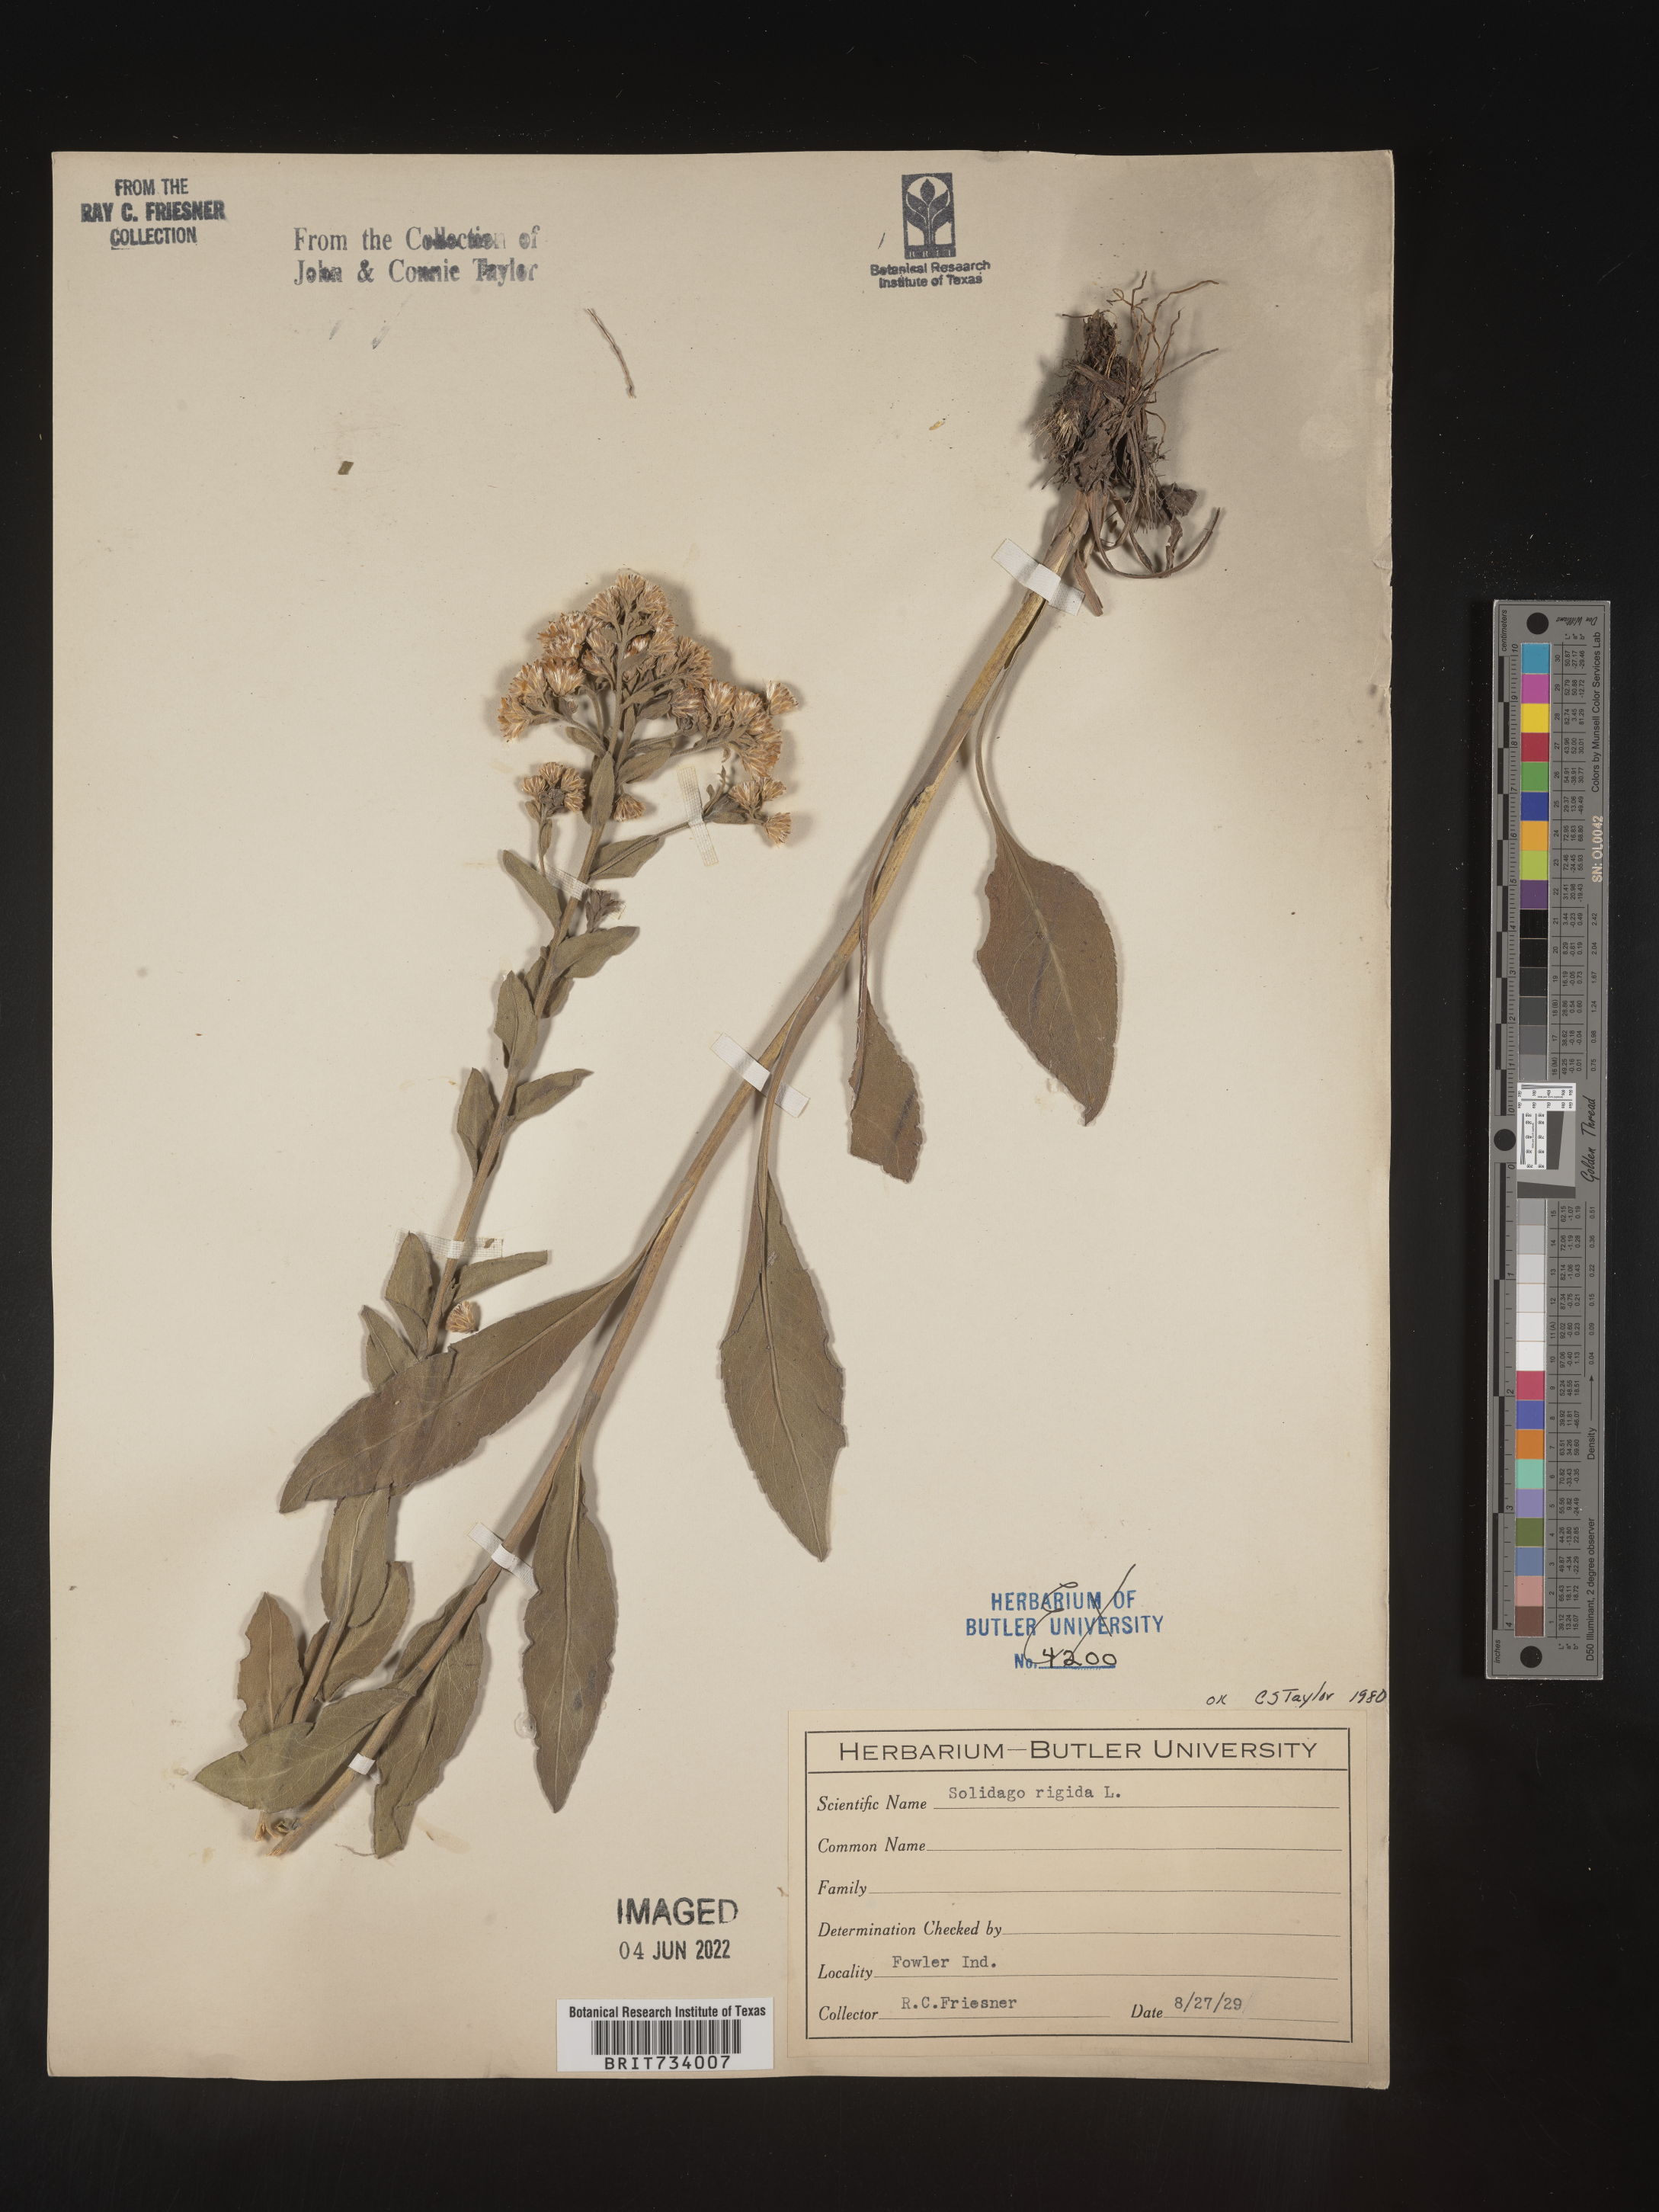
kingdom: Plantae
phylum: Tracheophyta
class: Magnoliopsida
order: Asterales
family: Asteraceae
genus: Solidago
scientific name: Solidago rigida
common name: Rigid goldenrod
